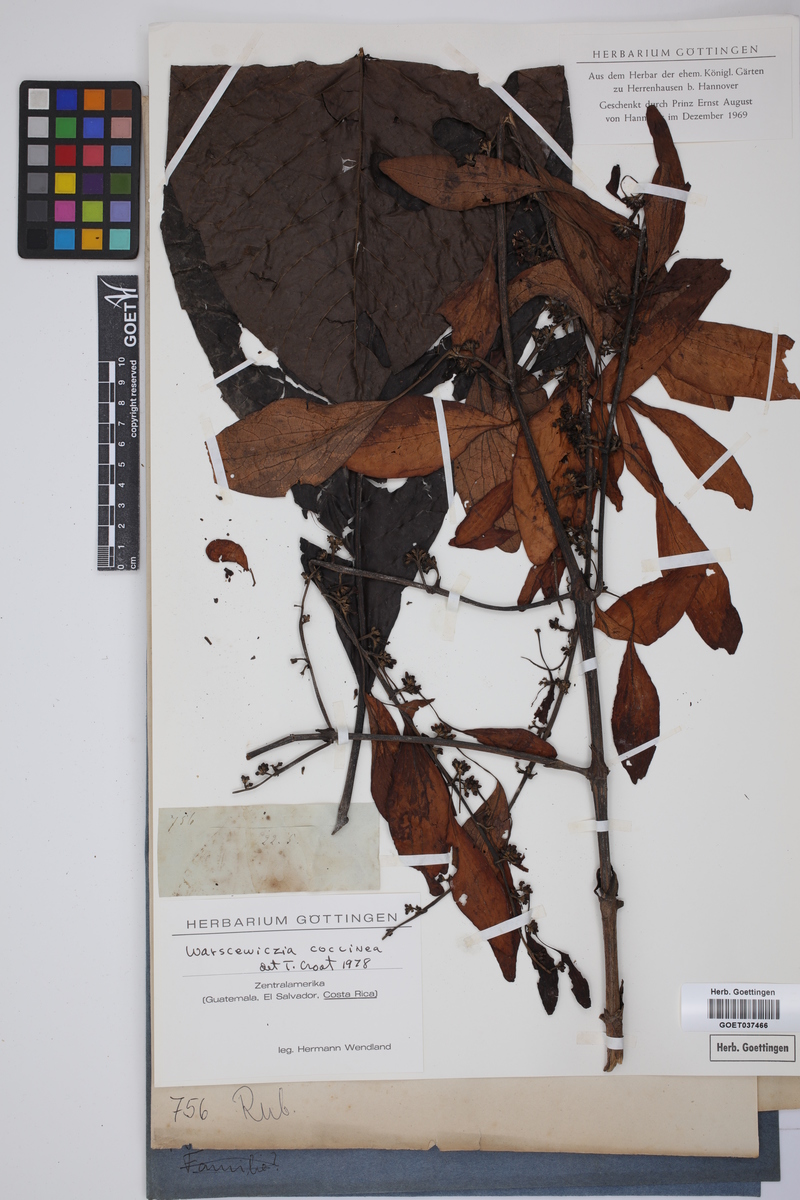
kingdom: Plantae
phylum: Tracheophyta
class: Magnoliopsida
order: Gentianales
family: Rubiaceae
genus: Warszewiczia
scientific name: Warszewiczia coccinea
